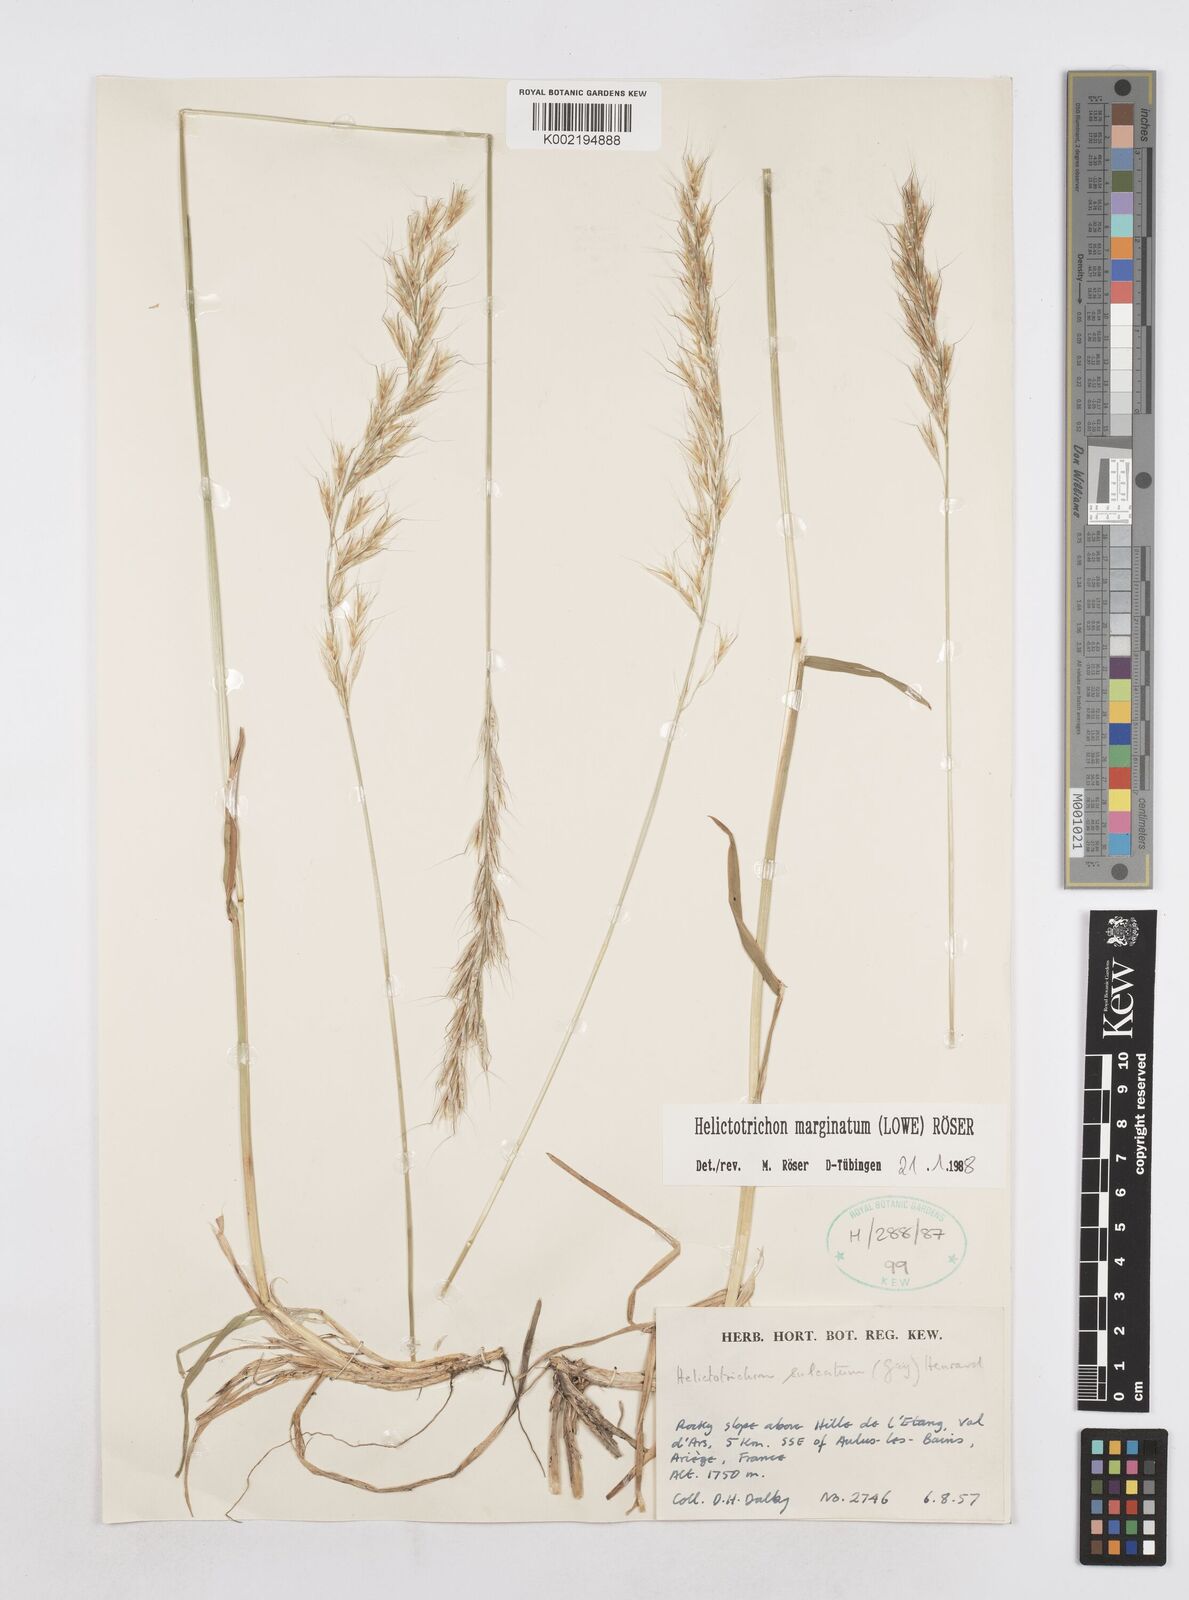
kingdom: Plantae
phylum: Tracheophyta
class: Liliopsida
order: Poales
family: Poaceae
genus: Helictotrichon
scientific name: Helictotrichon
